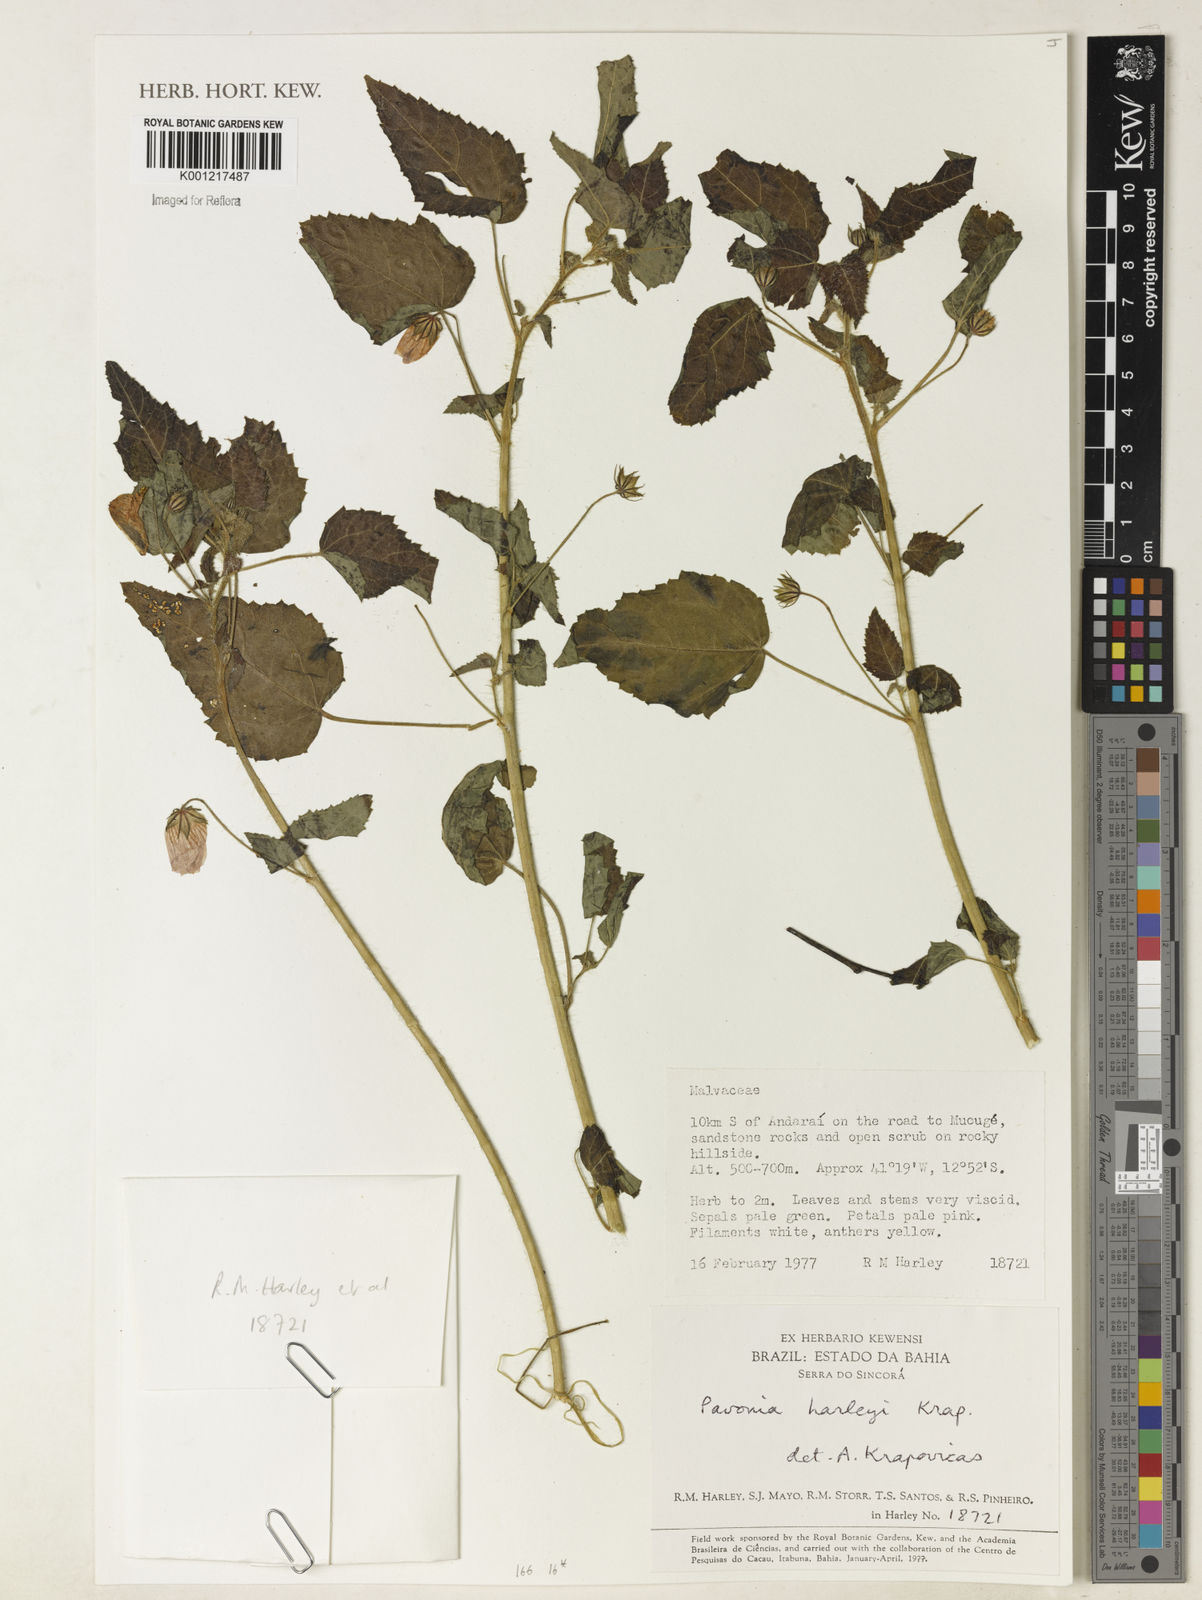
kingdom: Plantae
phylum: Tracheophyta
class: Magnoliopsida
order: Malvales
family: Malvaceae
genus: Pavonia
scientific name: Pavonia harleyi
